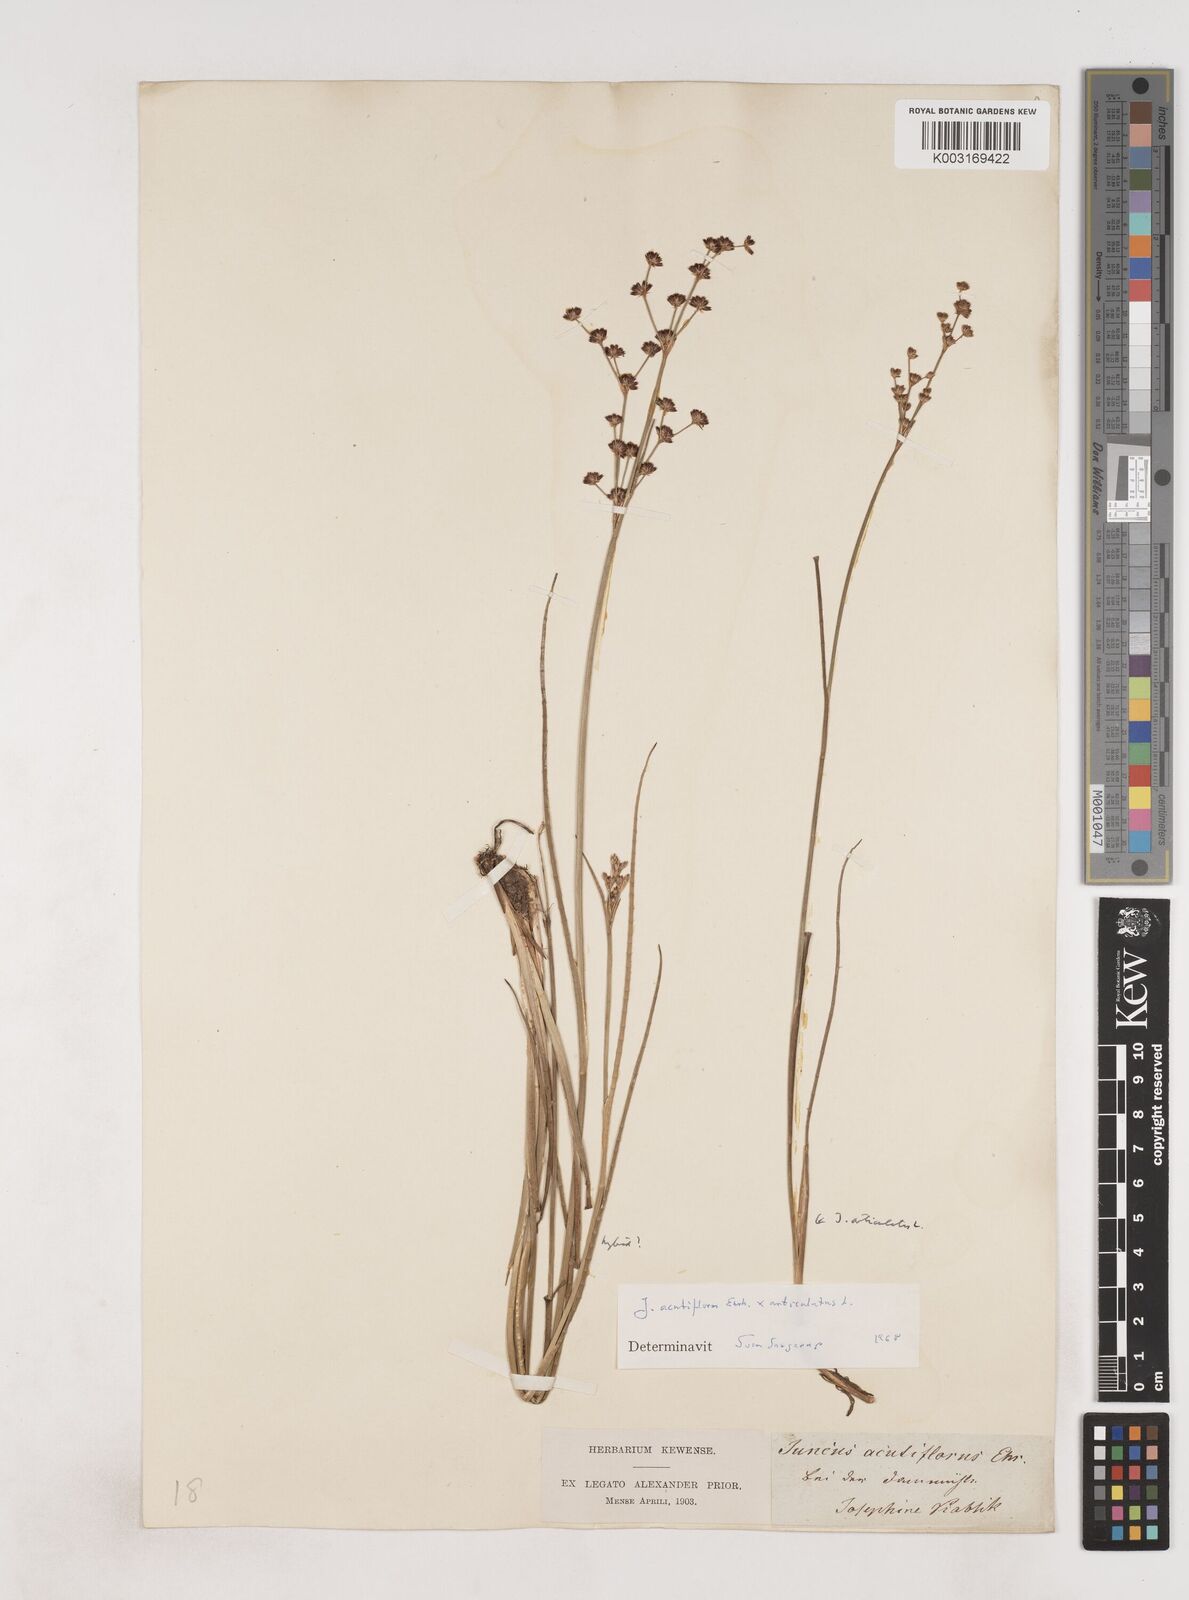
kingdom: Plantae
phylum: Tracheophyta
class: Liliopsida
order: Poales
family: Juncaceae
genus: Juncus
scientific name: Juncus acutiflorus
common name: Sharp-flowered rush
